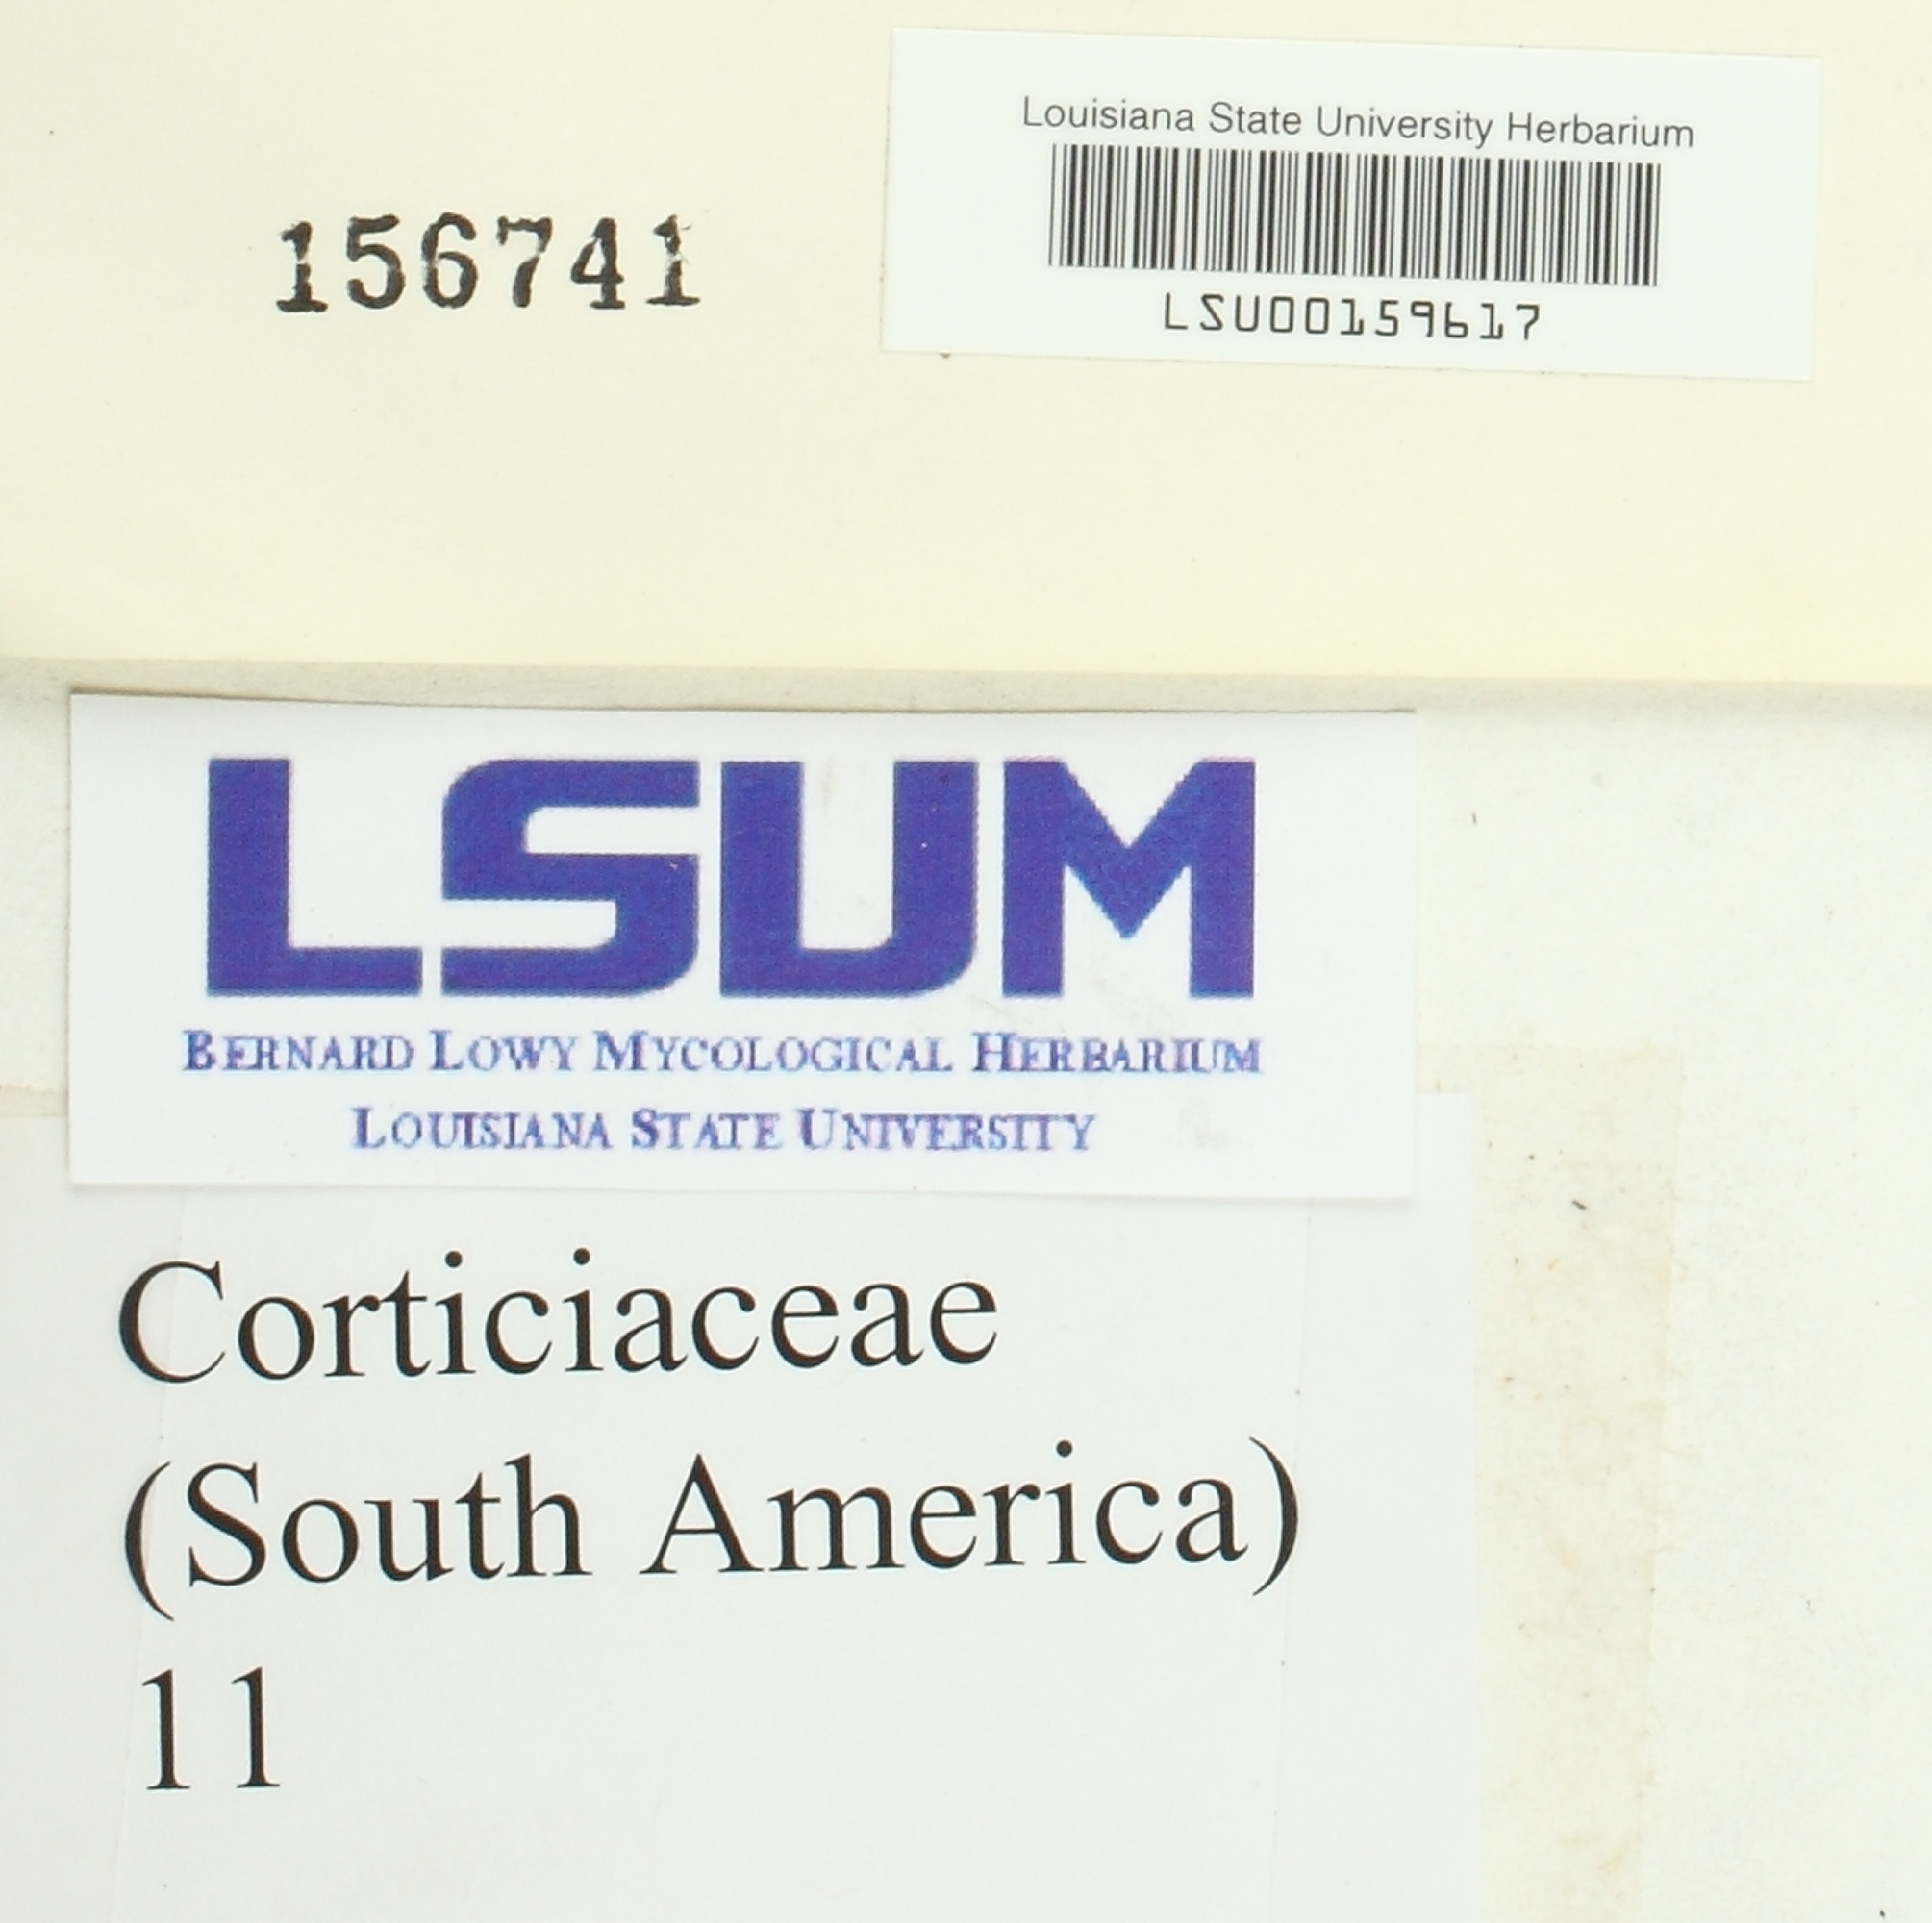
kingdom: Fungi
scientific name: Fungi
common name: Fungi
